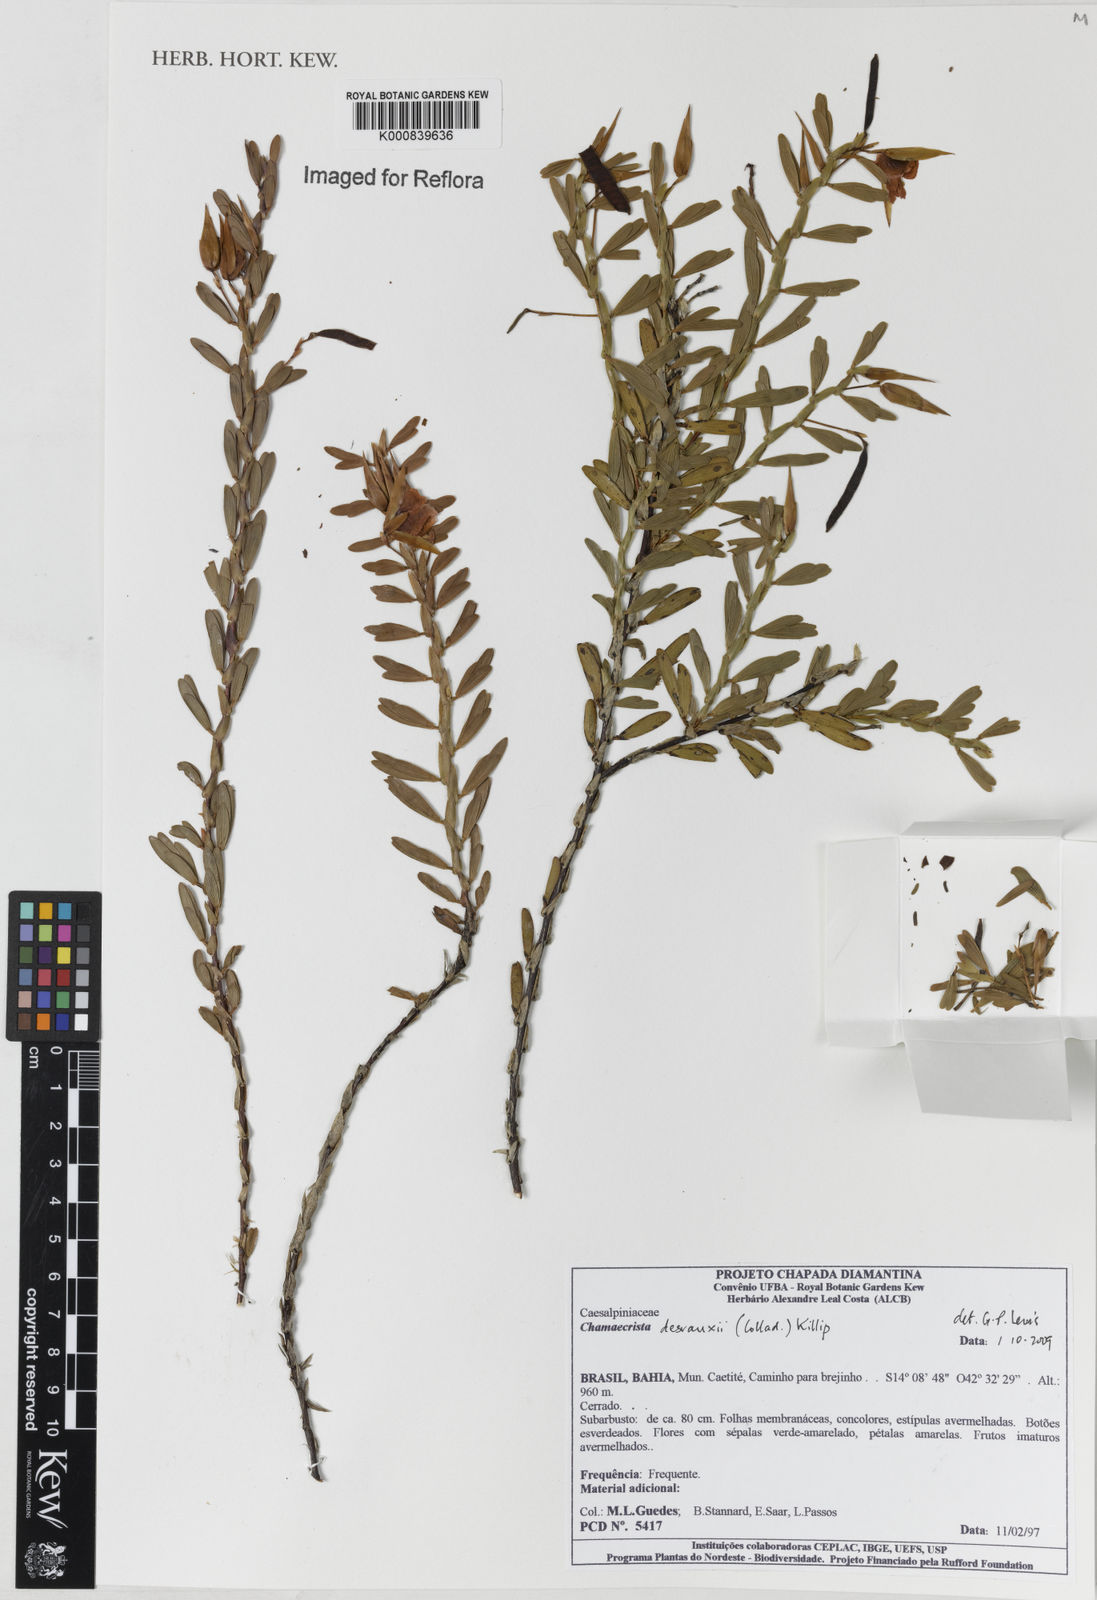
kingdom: Plantae
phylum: Tracheophyta
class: Magnoliopsida
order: Fabales
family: Fabaceae
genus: Chamaecrista
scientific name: Chamaecrista langsdorffii
